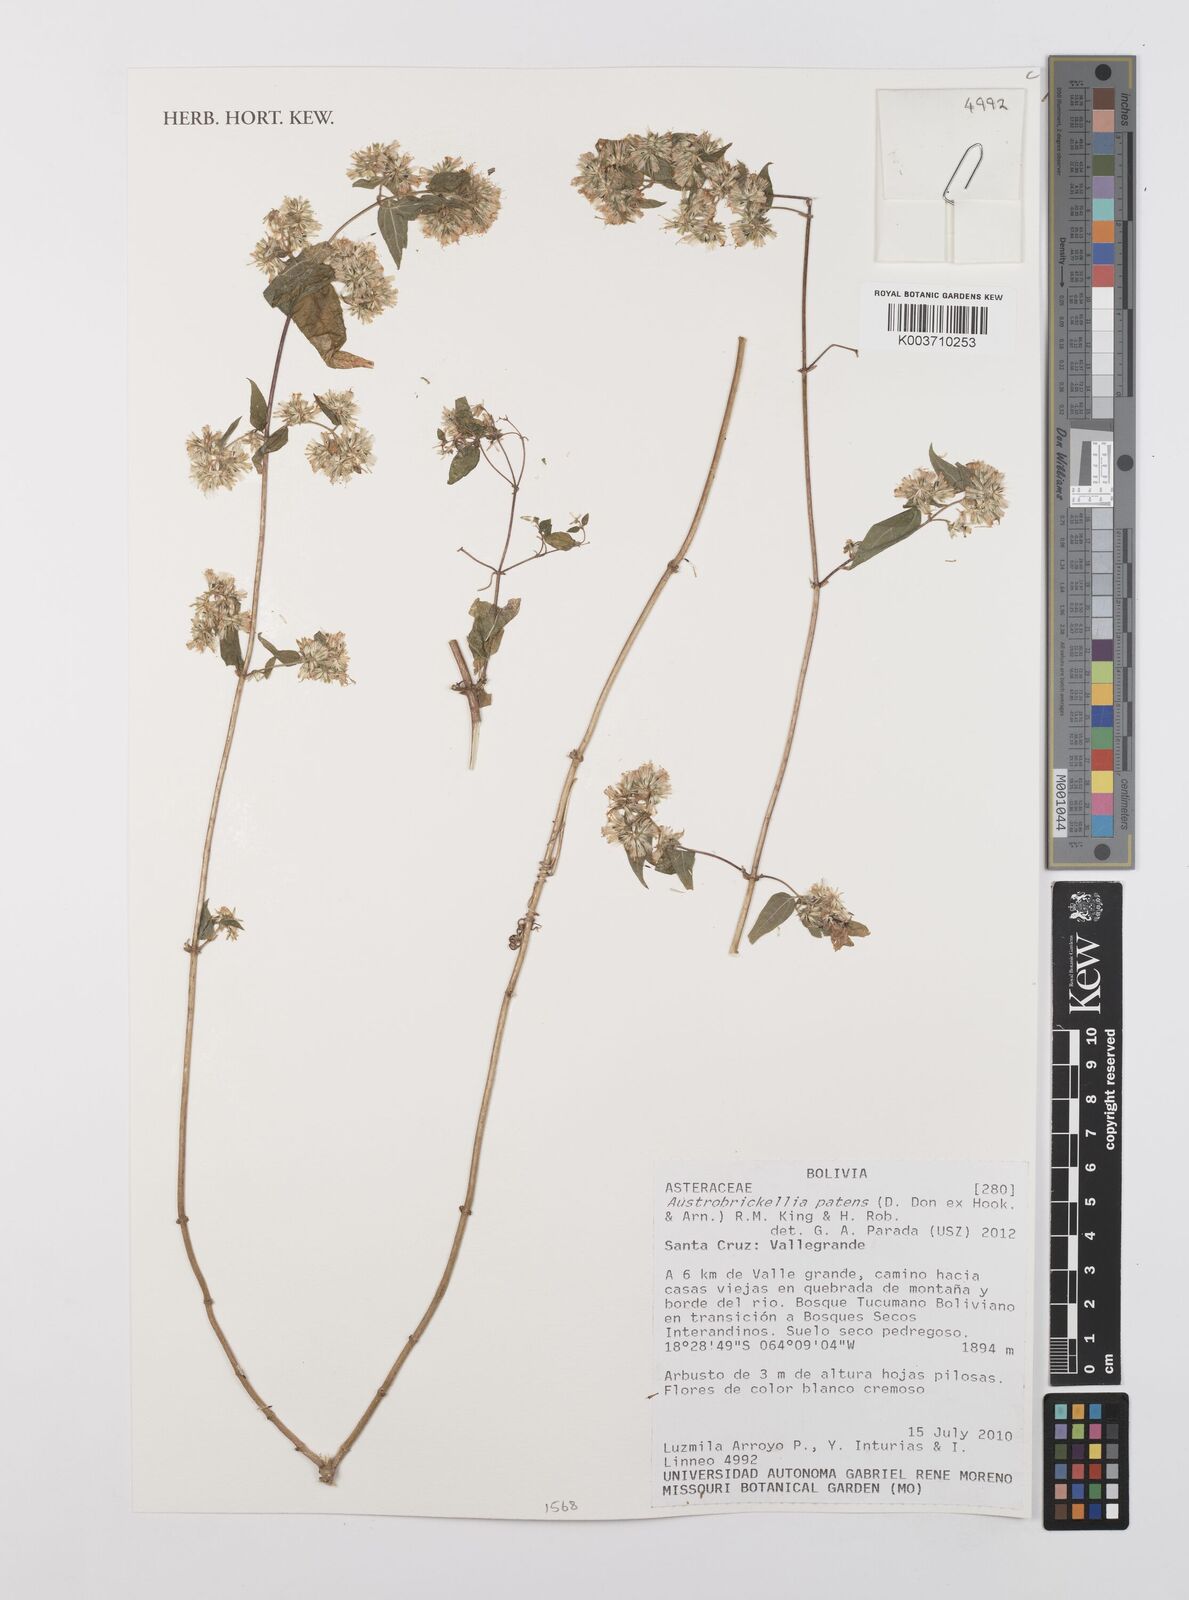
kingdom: Plantae
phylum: Tracheophyta
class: Magnoliopsida
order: Asterales
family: Asteraceae
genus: Austrobrickellia
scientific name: Austrobrickellia patens
